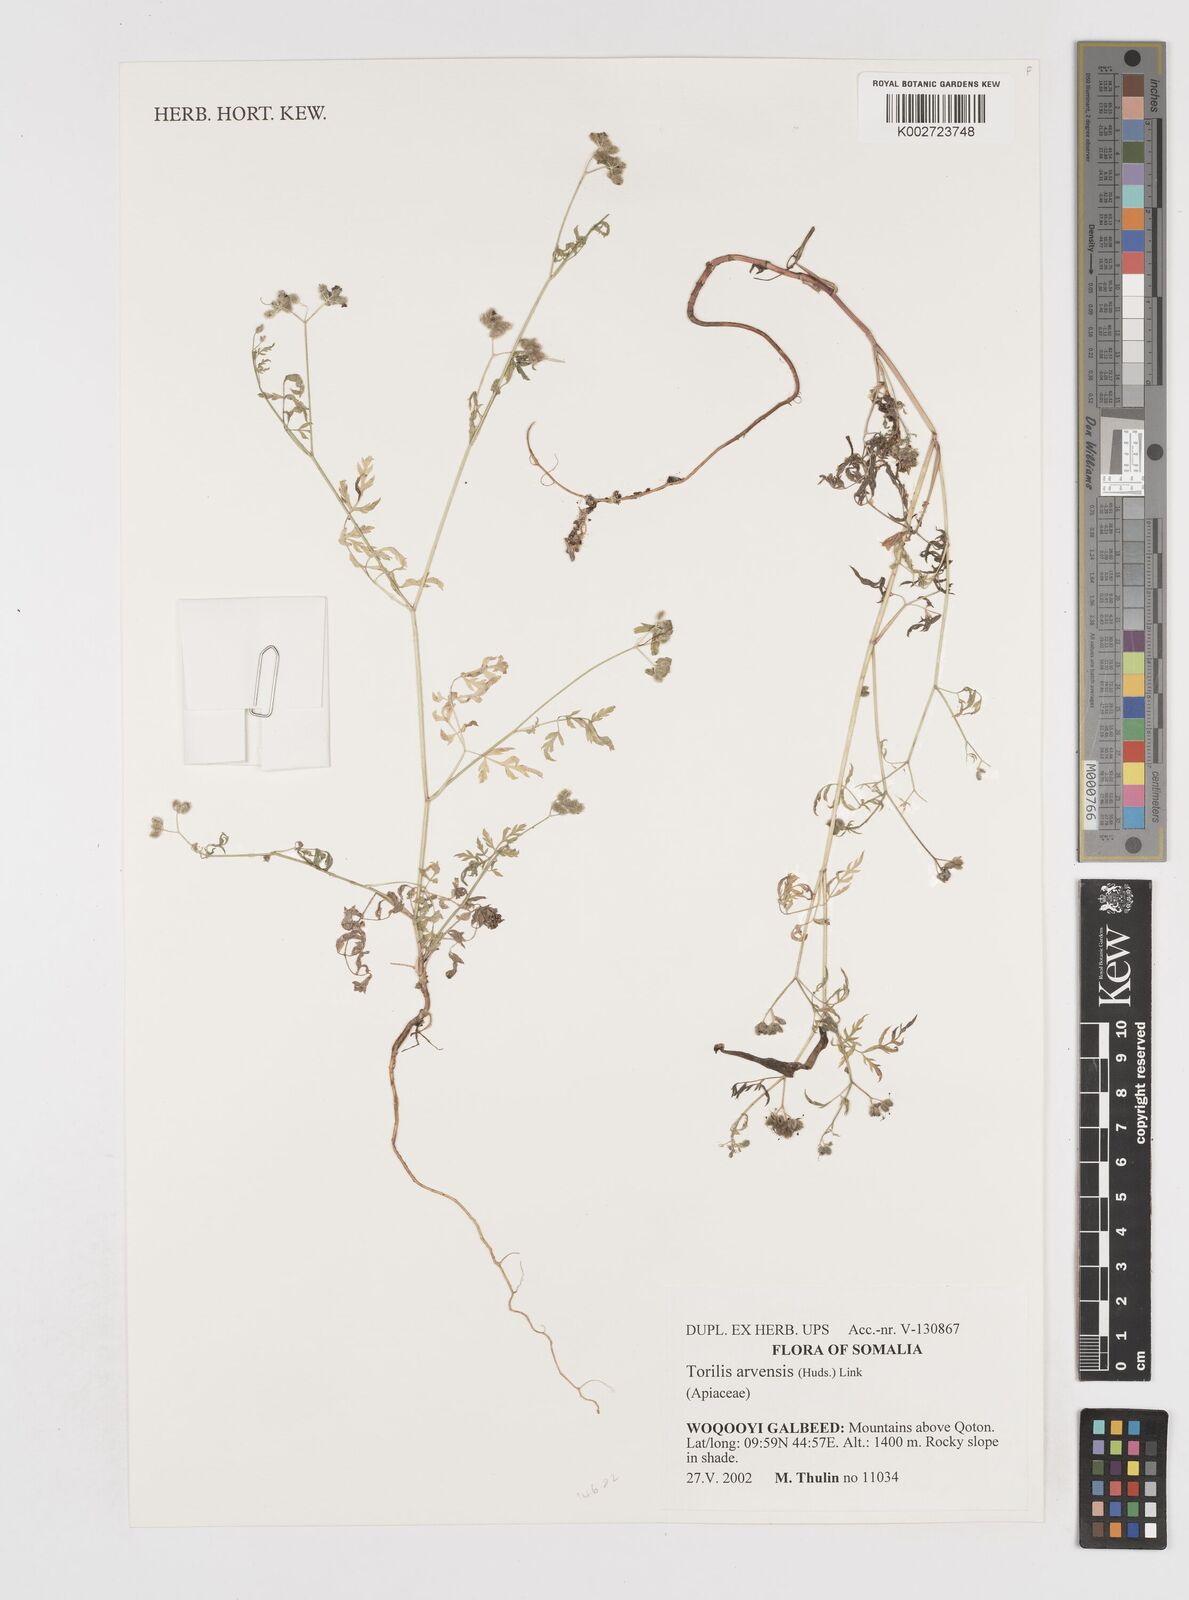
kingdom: Plantae
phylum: Tracheophyta
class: Magnoliopsida
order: Apiales
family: Apiaceae
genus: Torilis
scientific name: Torilis arvensis
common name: Spreading hedge-parsley
